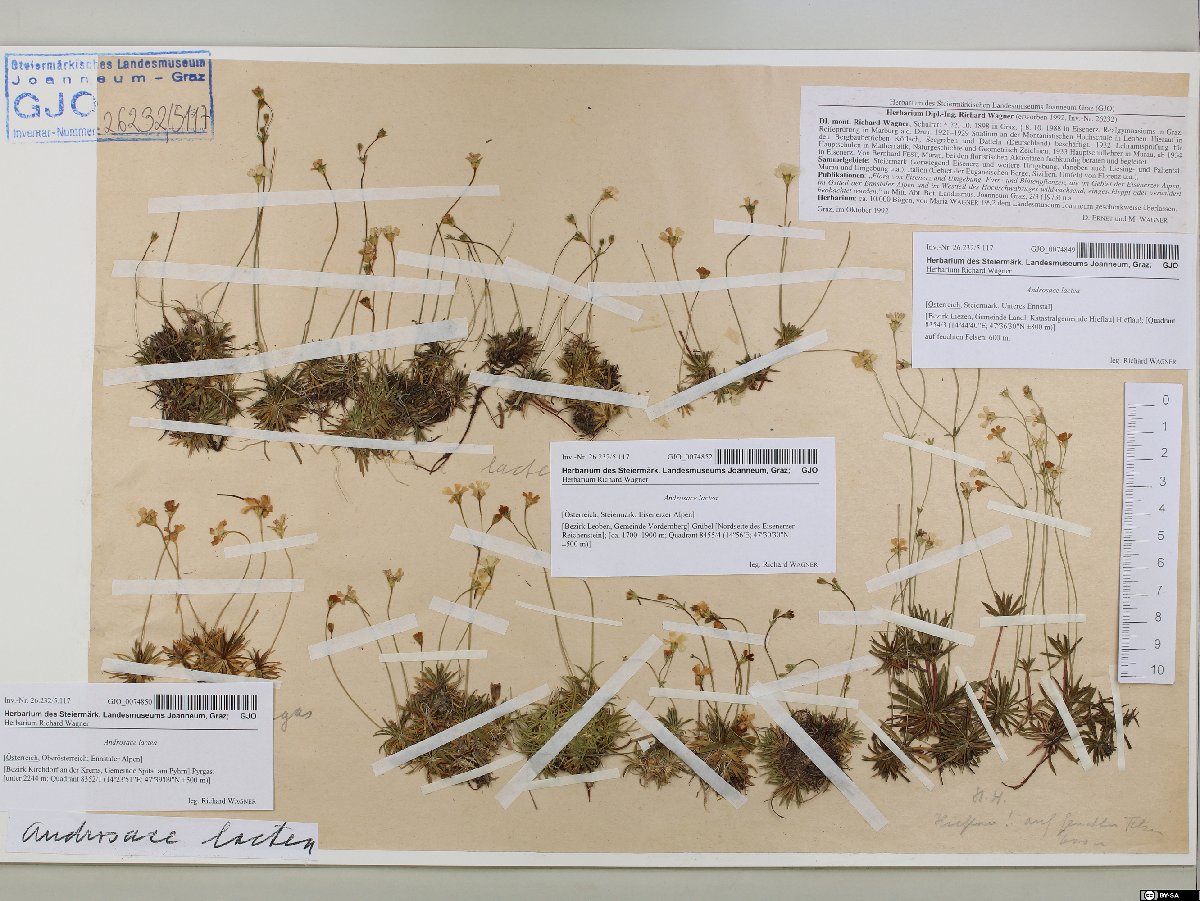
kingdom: Plantae
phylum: Tracheophyta
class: Magnoliopsida
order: Ericales
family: Primulaceae
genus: Androsace
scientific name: Androsace lactea
